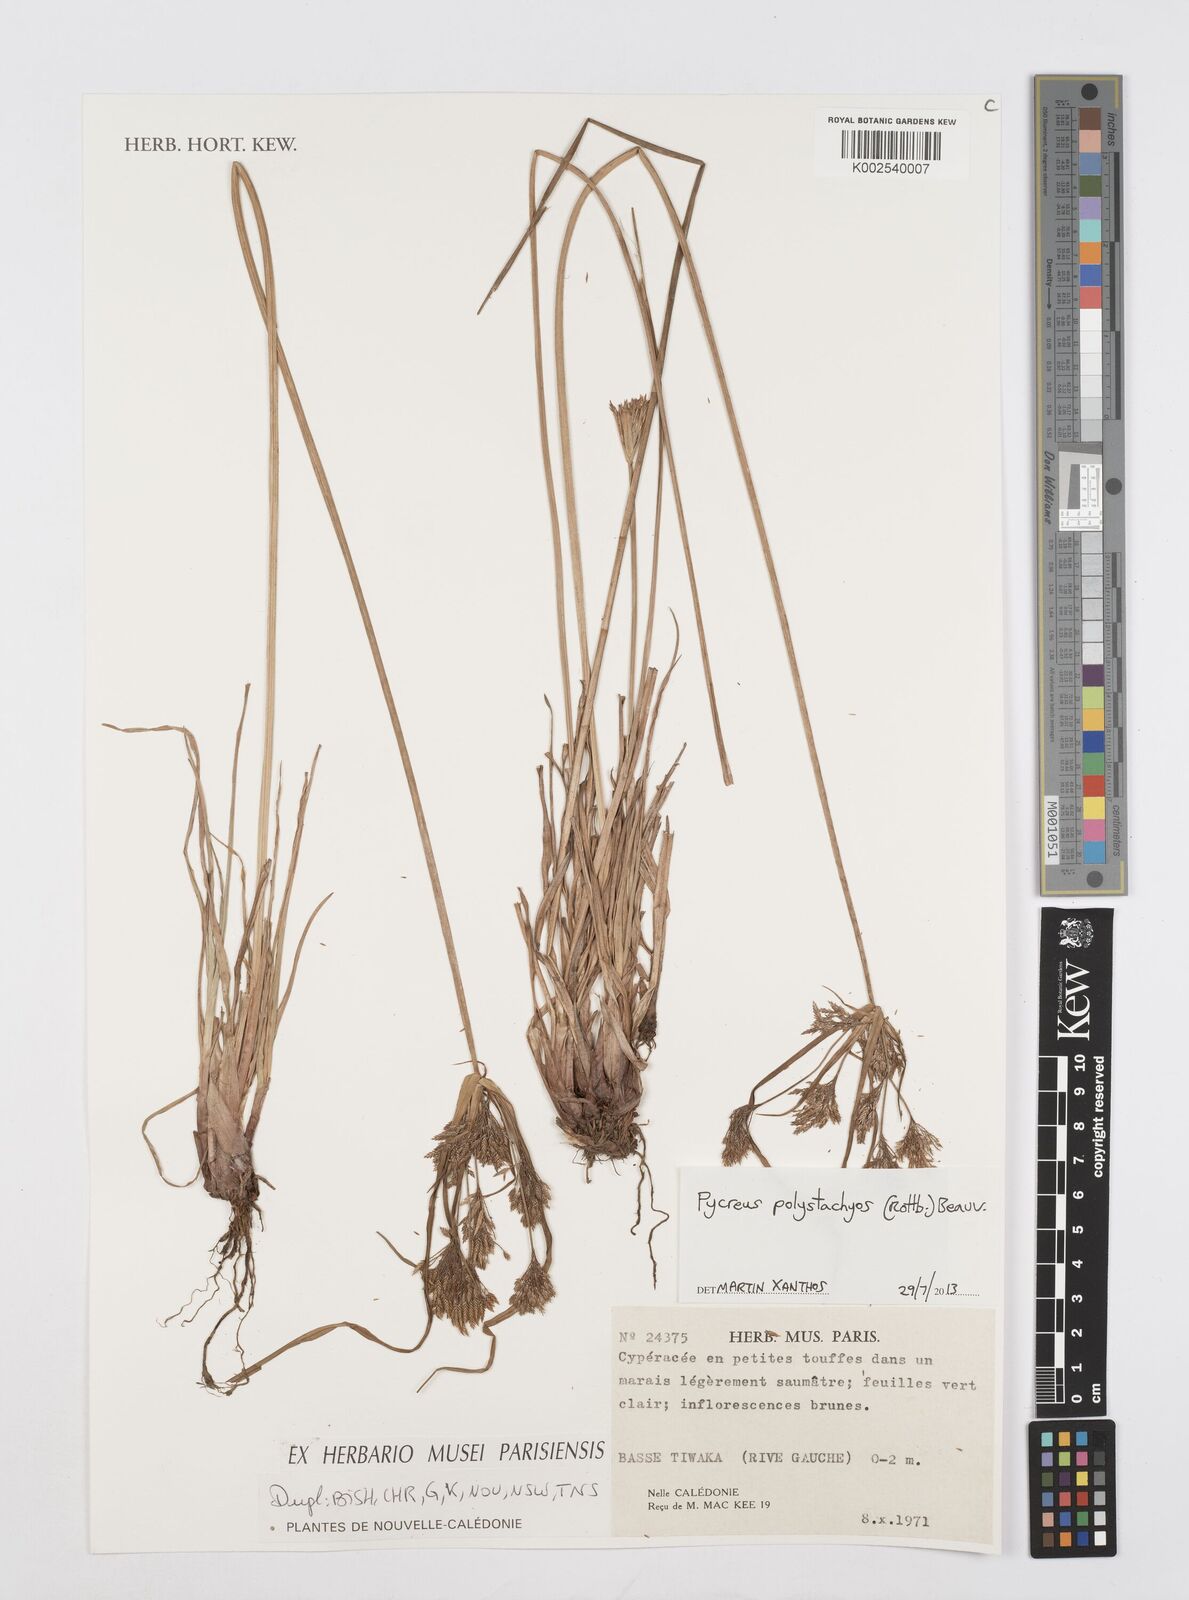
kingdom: Plantae
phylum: Tracheophyta
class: Liliopsida
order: Poales
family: Cyperaceae
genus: Cyperus
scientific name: Cyperus polystachyos
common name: Bunchy flat sedge
